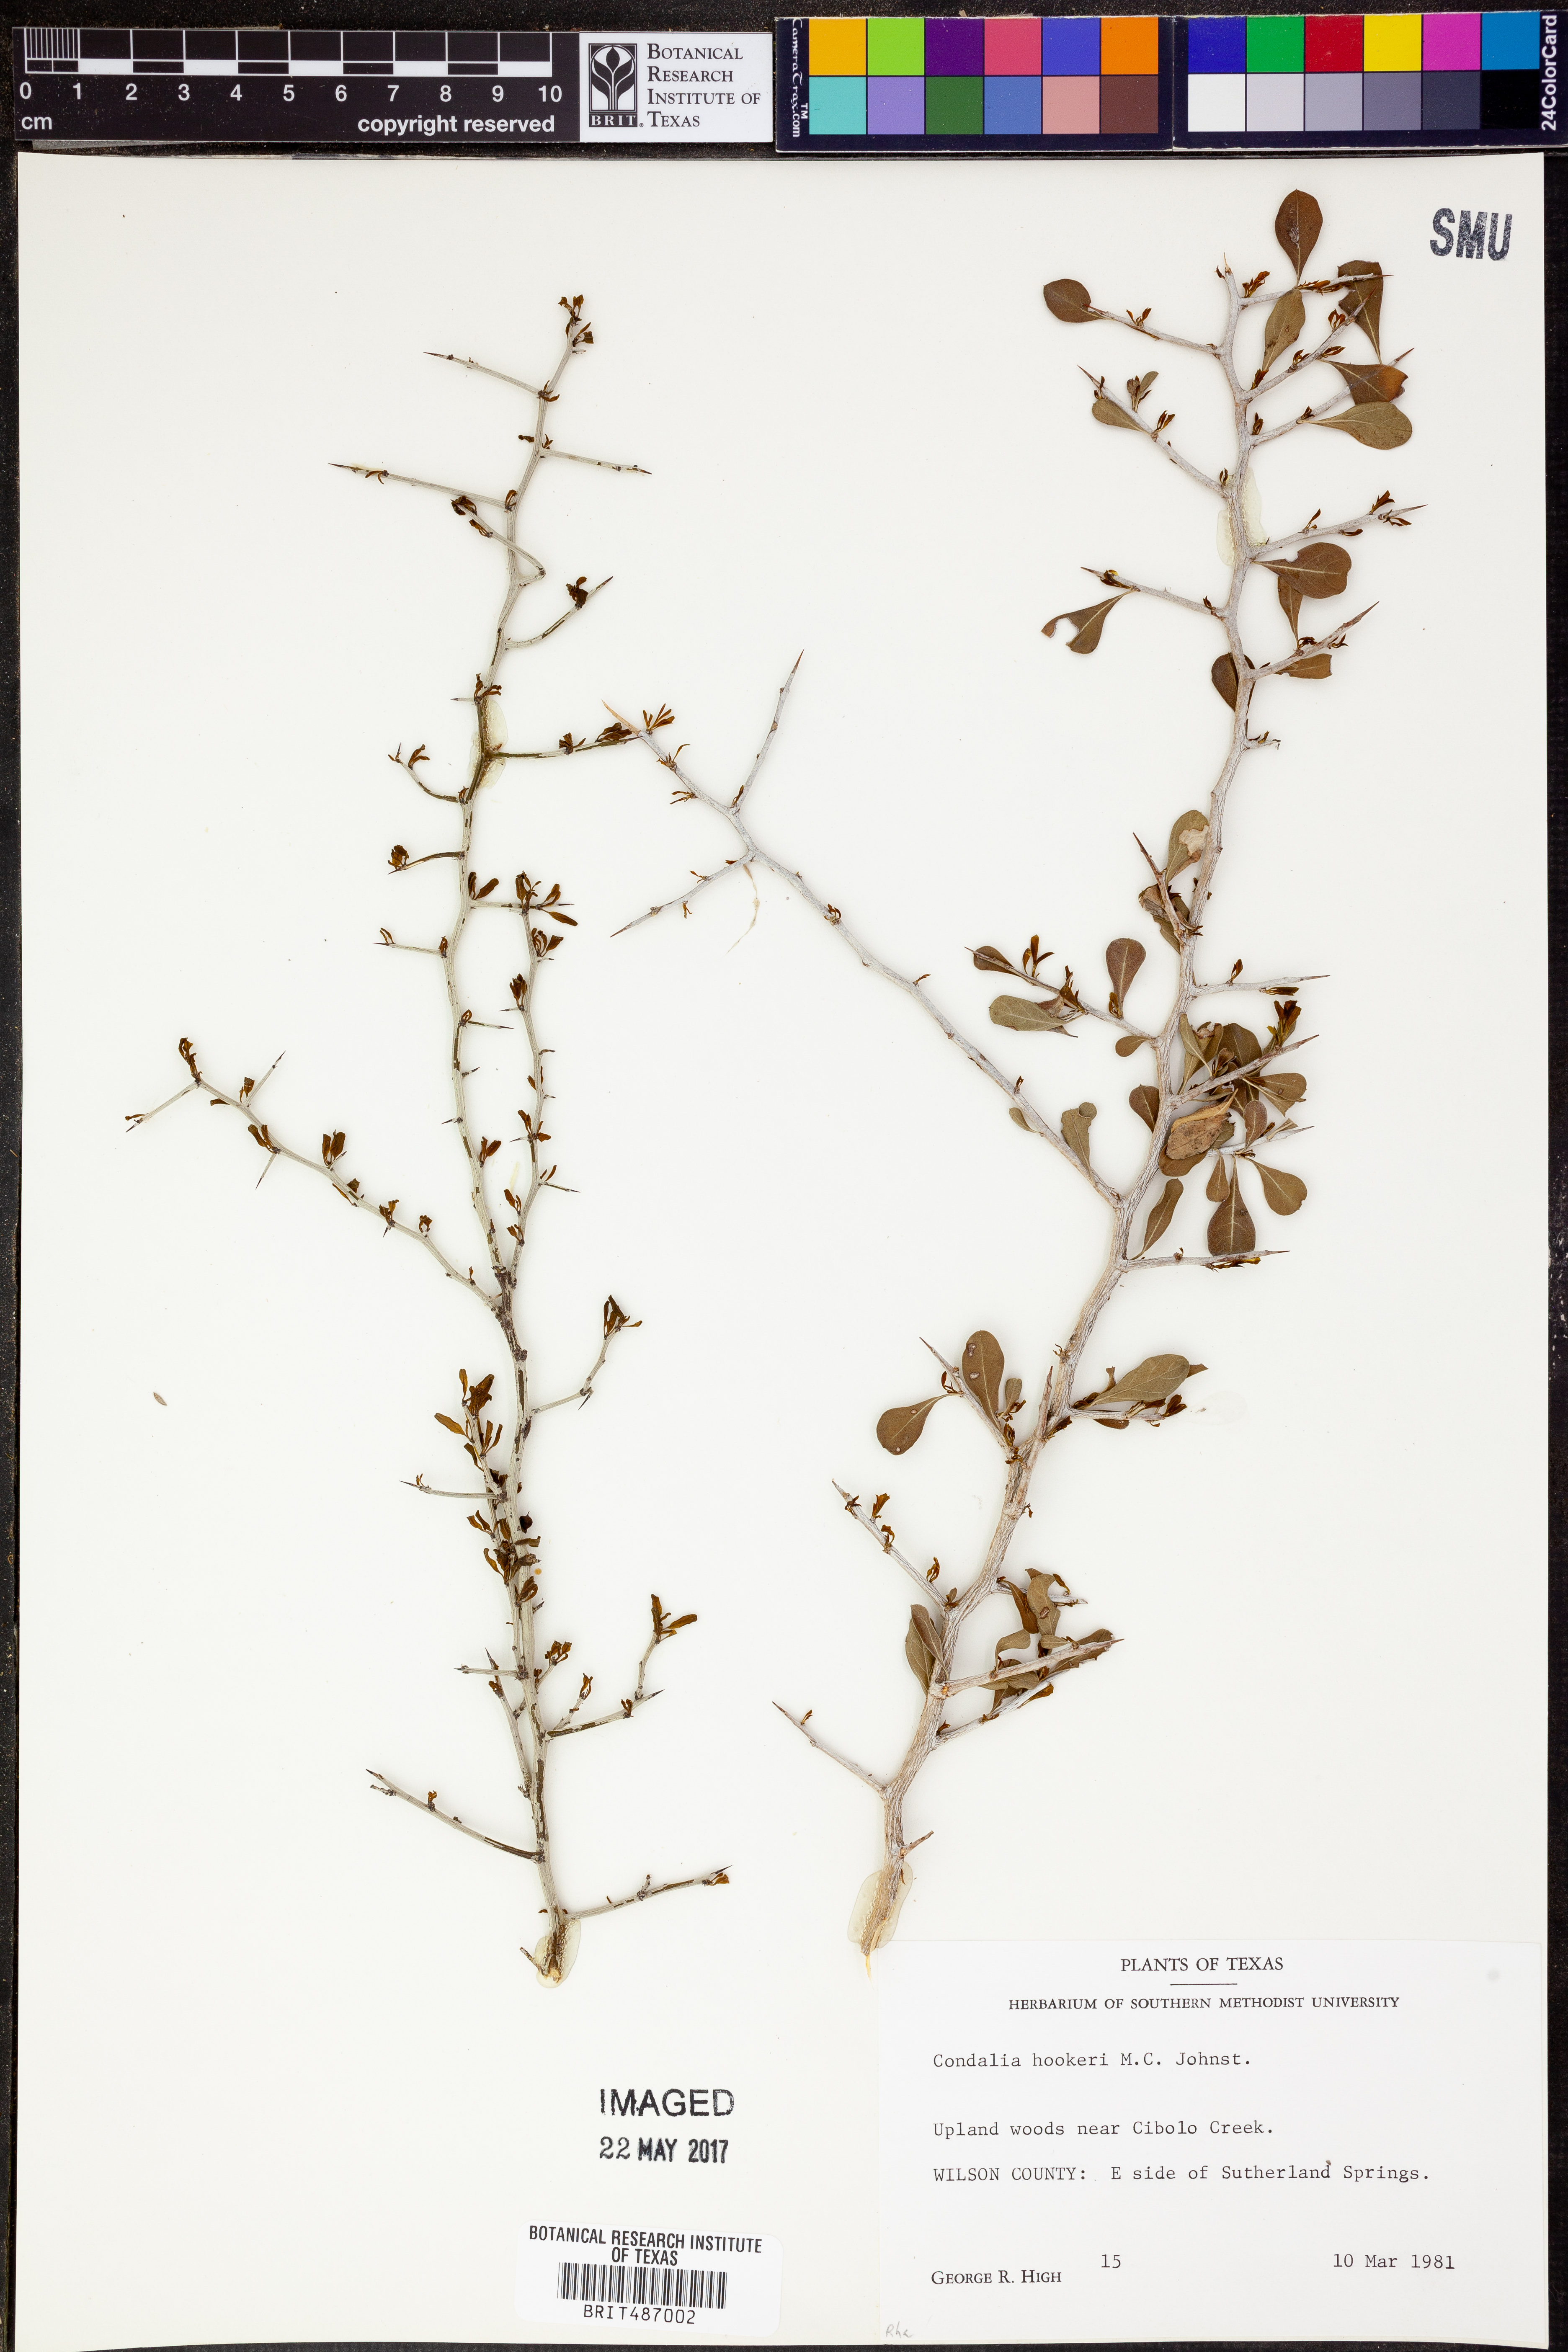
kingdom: Plantae
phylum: Tracheophyta
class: Magnoliopsida
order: Rosales
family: Rhamnaceae
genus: Condalia
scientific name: Condalia hookeri
